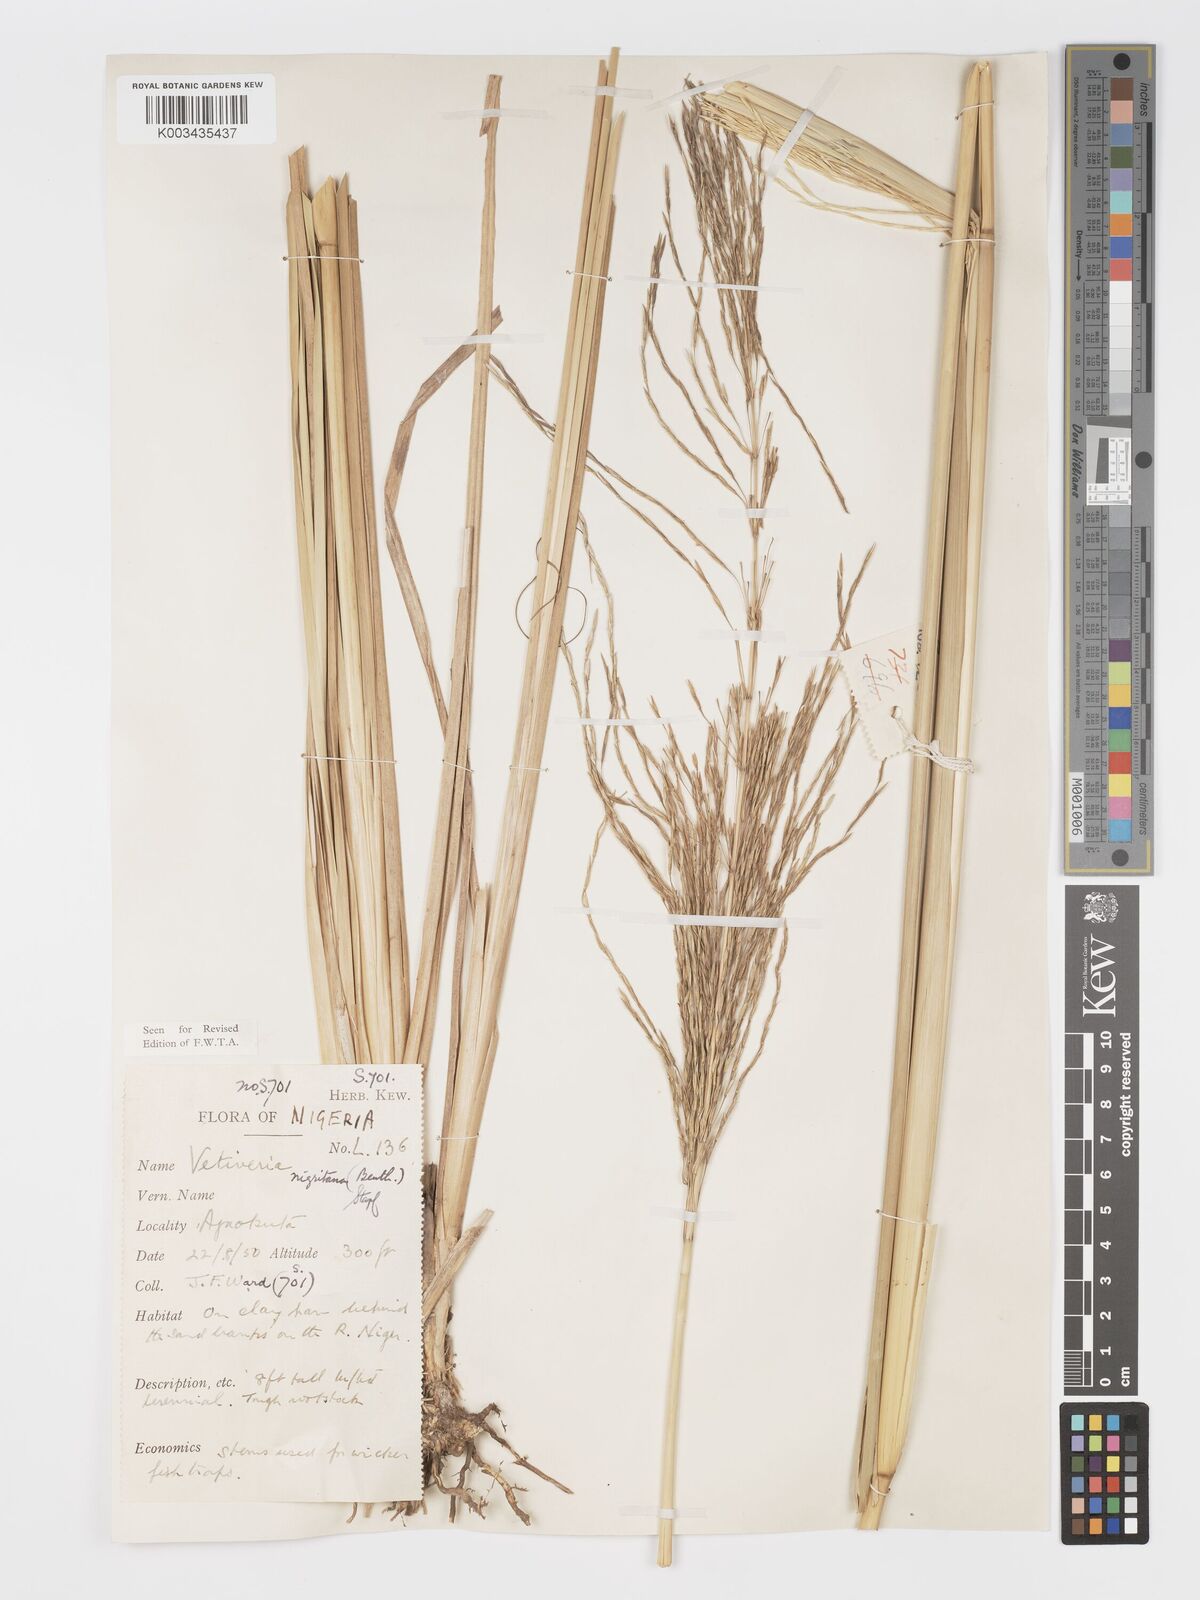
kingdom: Plantae
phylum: Tracheophyta
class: Liliopsida
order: Poales
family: Poaceae
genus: Chrysopogon
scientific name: Chrysopogon nigritanus
